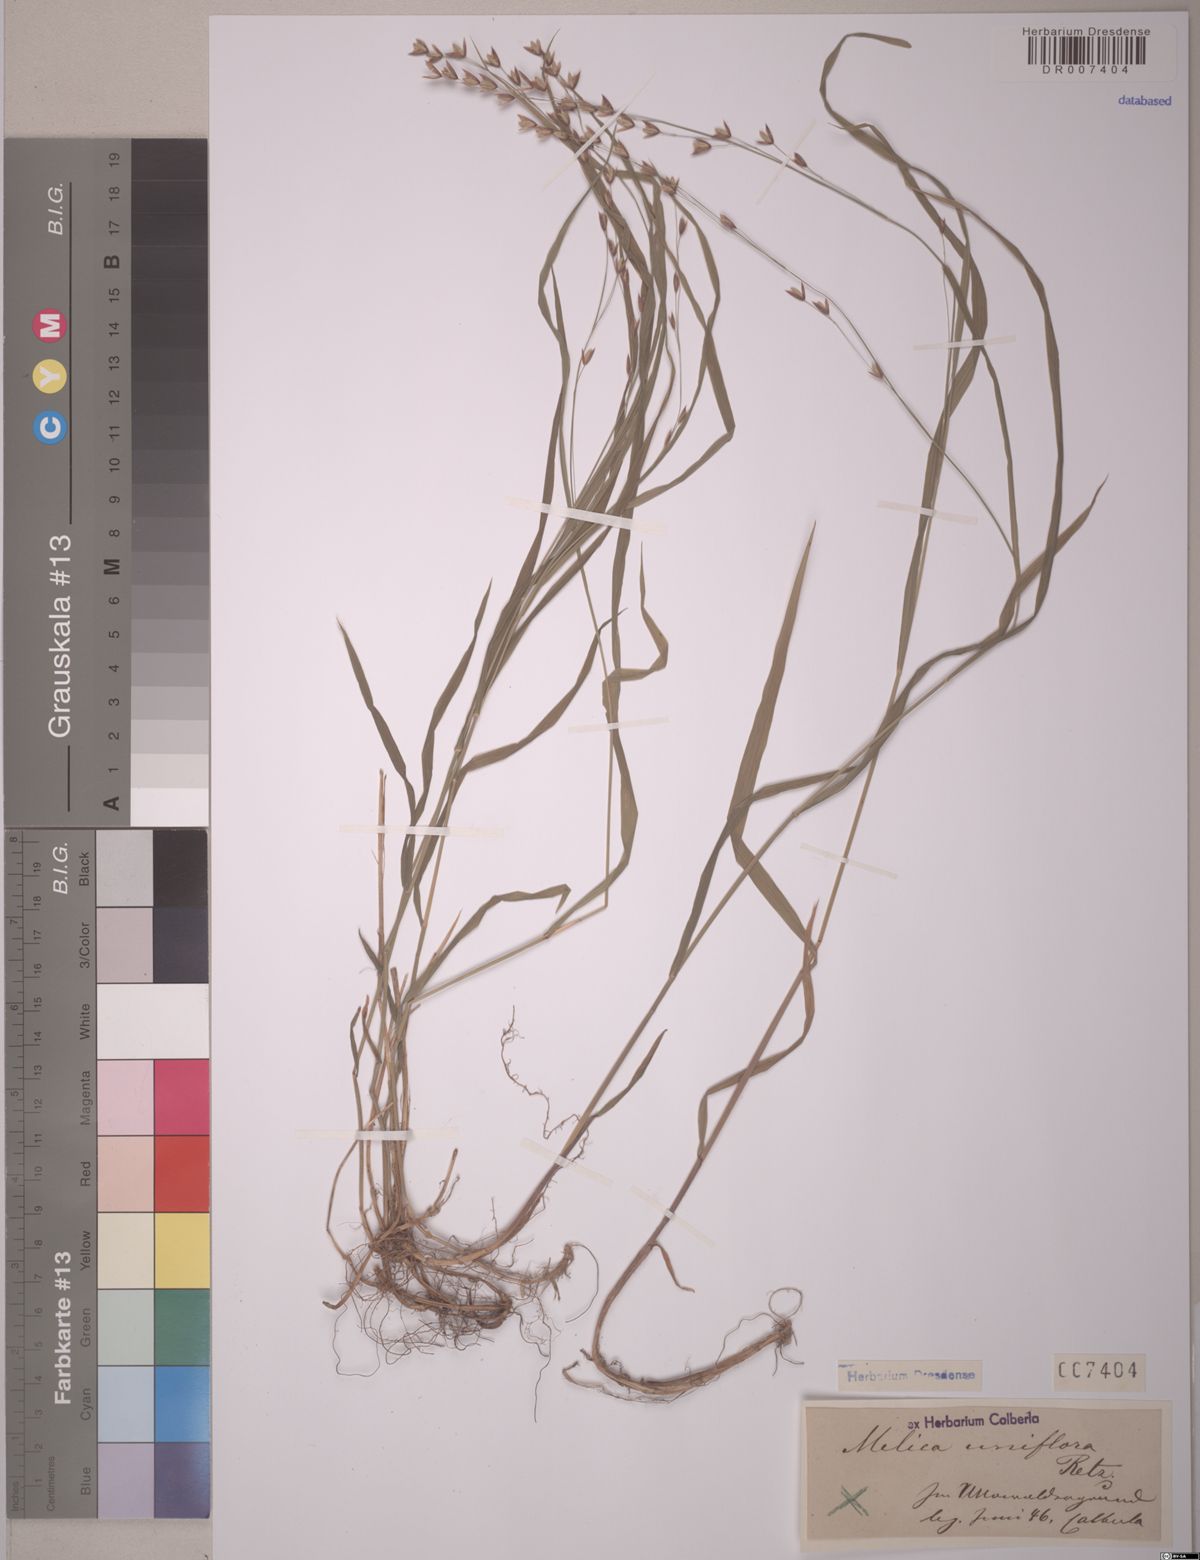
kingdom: Plantae
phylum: Tracheophyta
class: Liliopsida
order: Poales
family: Poaceae
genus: Melica
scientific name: Melica uniflora
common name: Wood melick
